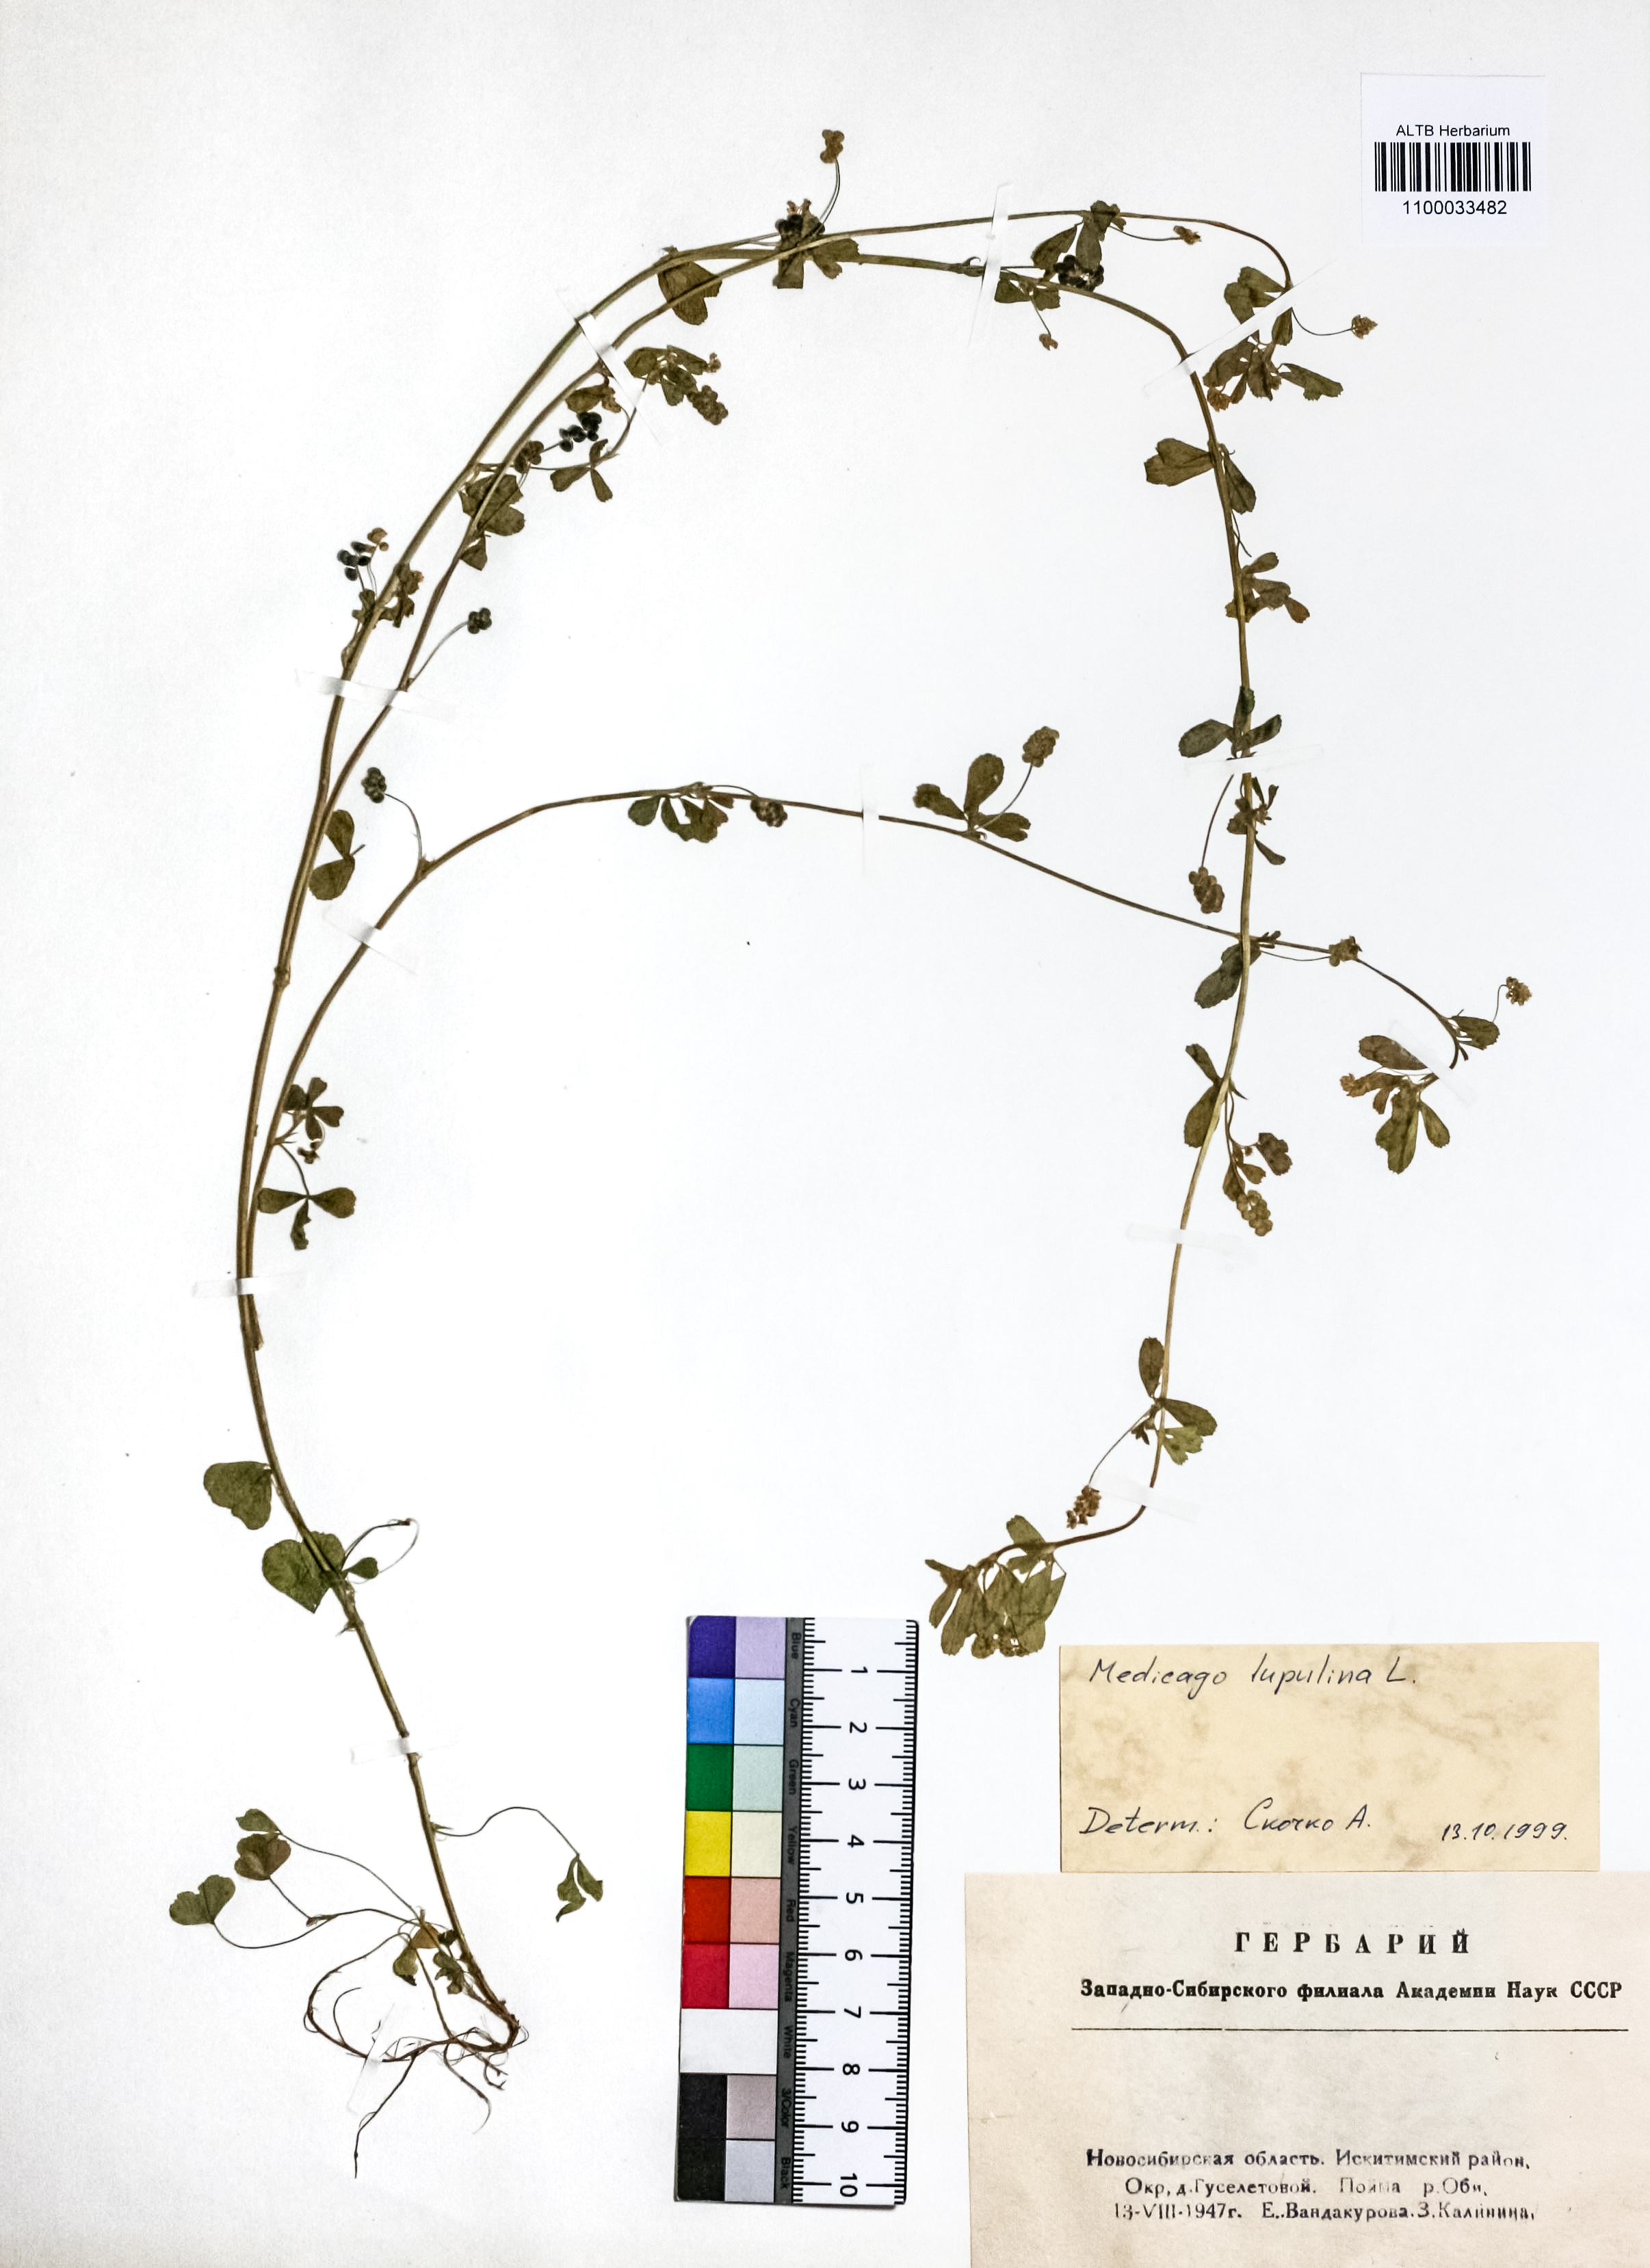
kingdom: Plantae
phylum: Tracheophyta
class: Magnoliopsida
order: Fabales
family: Fabaceae
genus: Medicago
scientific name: Medicago lupulina
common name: Black medick
